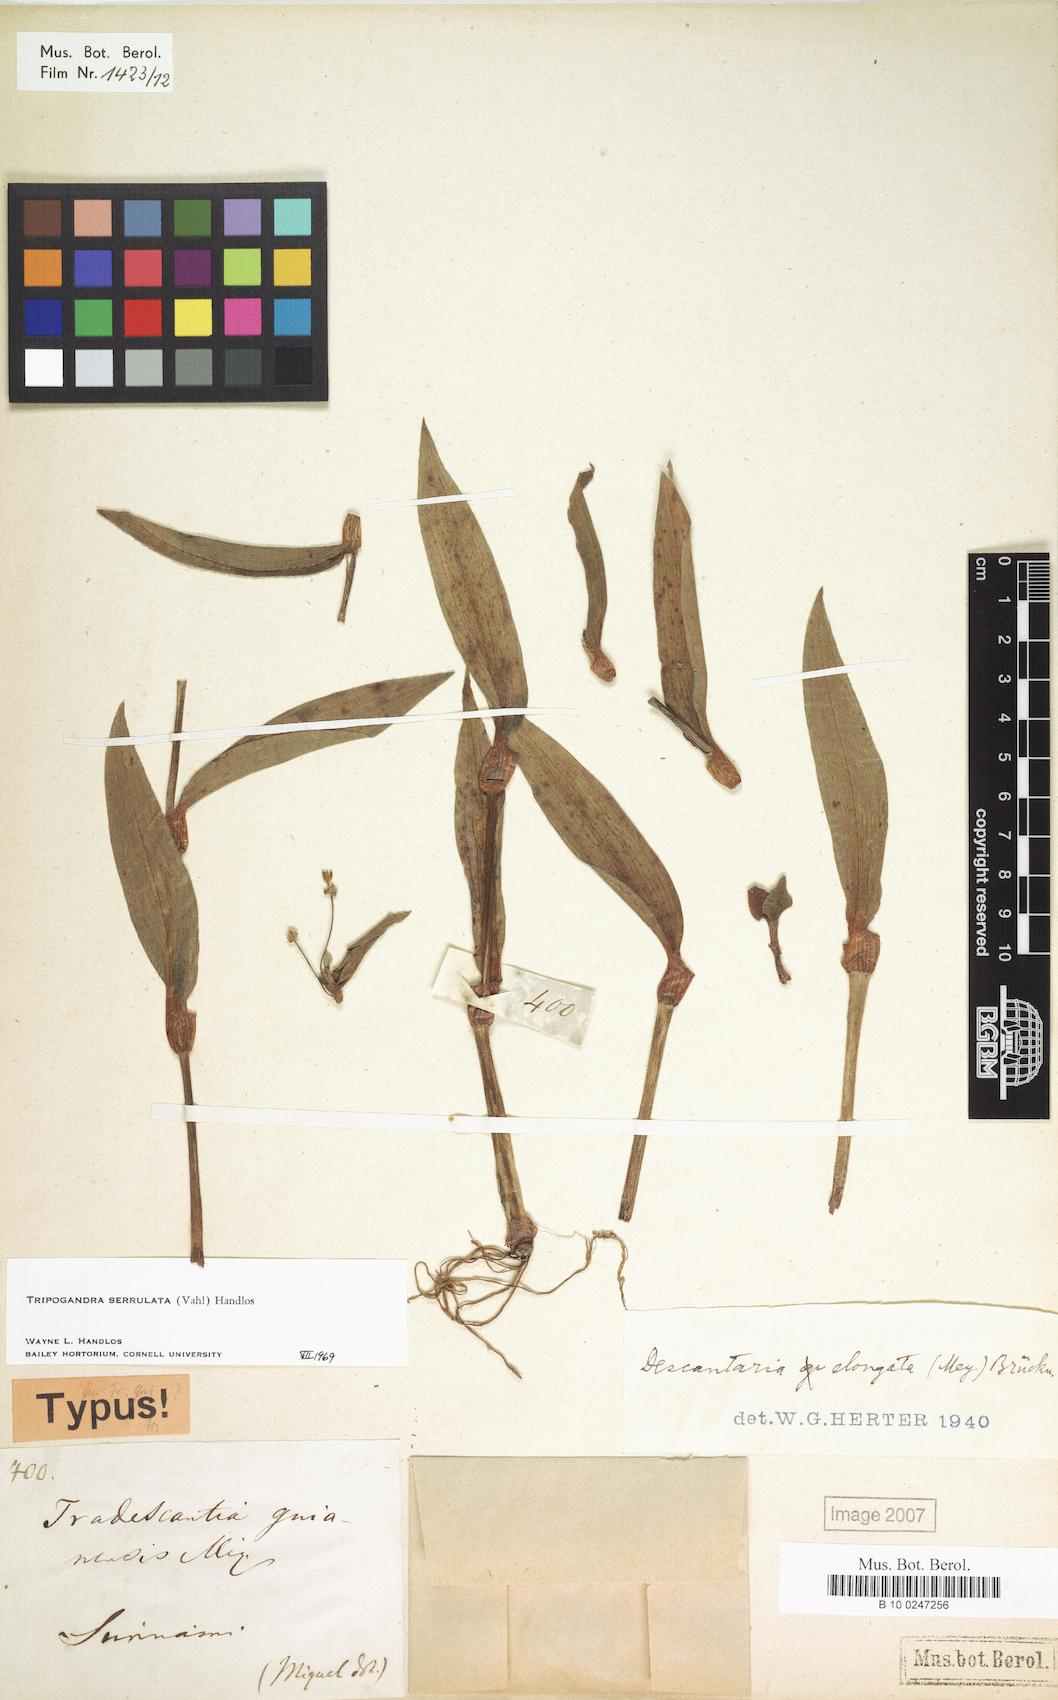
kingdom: Plantae
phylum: Tracheophyta
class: Liliopsida
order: Commelinales
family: Commelinaceae
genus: Callisia
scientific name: Callisia serrulata
